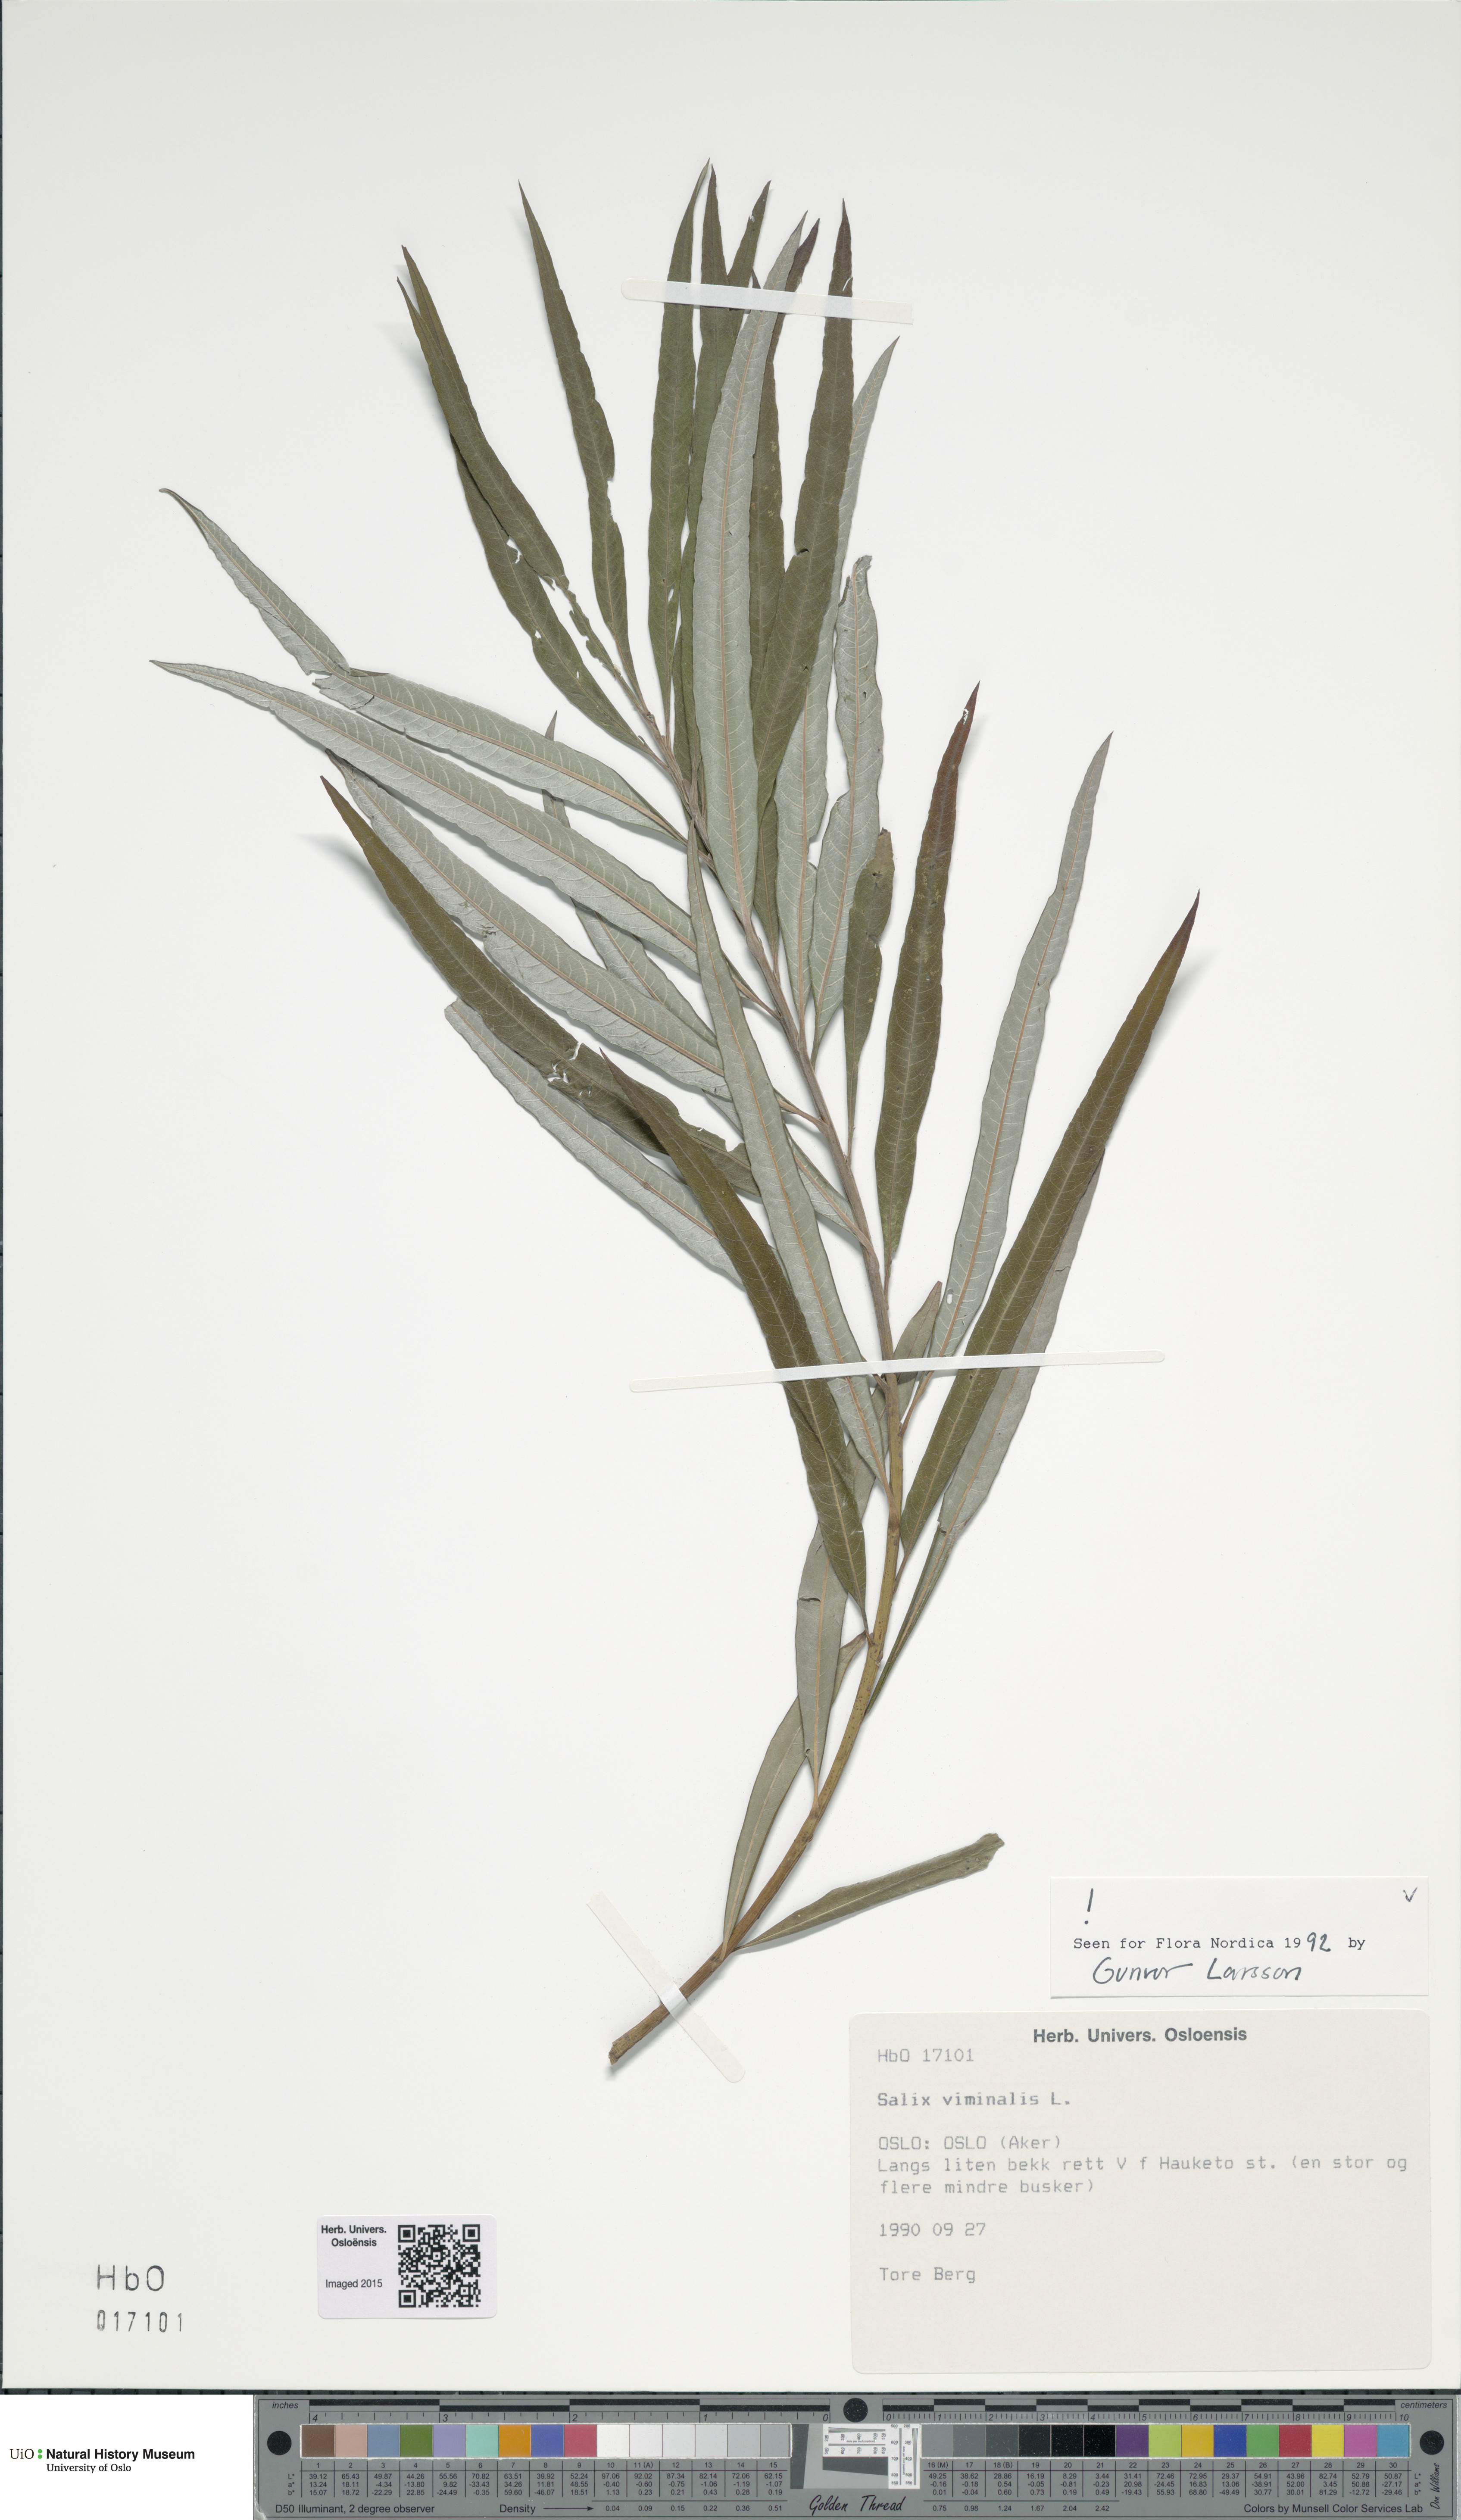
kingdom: Plantae
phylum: Tracheophyta
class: Magnoliopsida
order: Malpighiales
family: Salicaceae
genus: Salix
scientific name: Salix viminalis
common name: Osier
